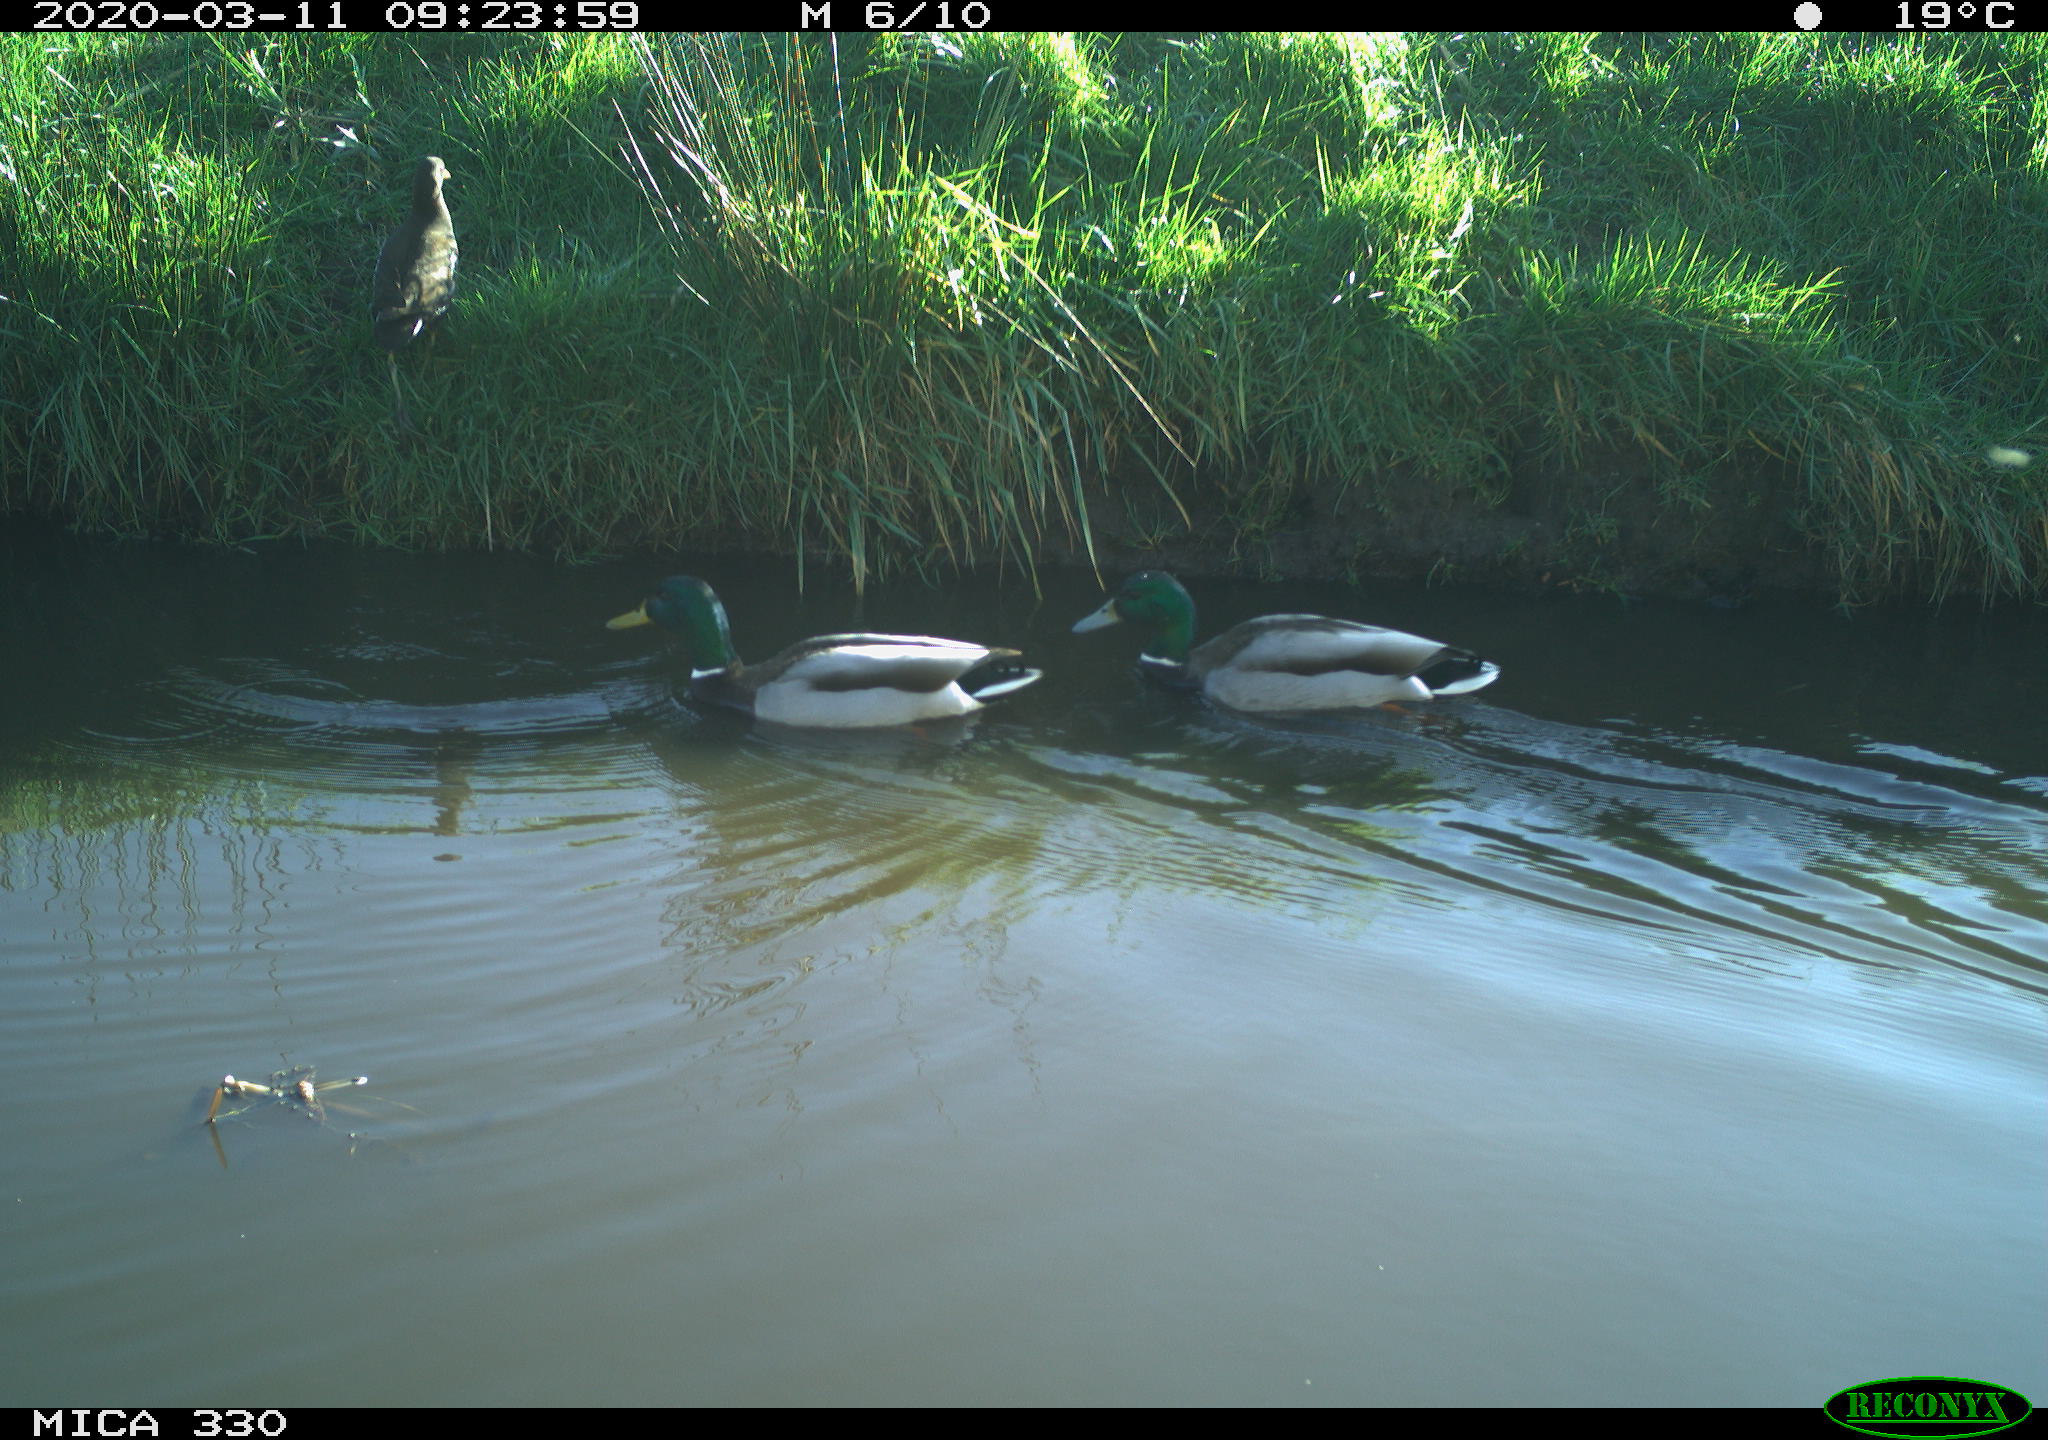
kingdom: Animalia
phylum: Chordata
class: Aves
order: Anseriformes
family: Anatidae
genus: Anas
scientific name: Anas platyrhynchos
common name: Mallard
